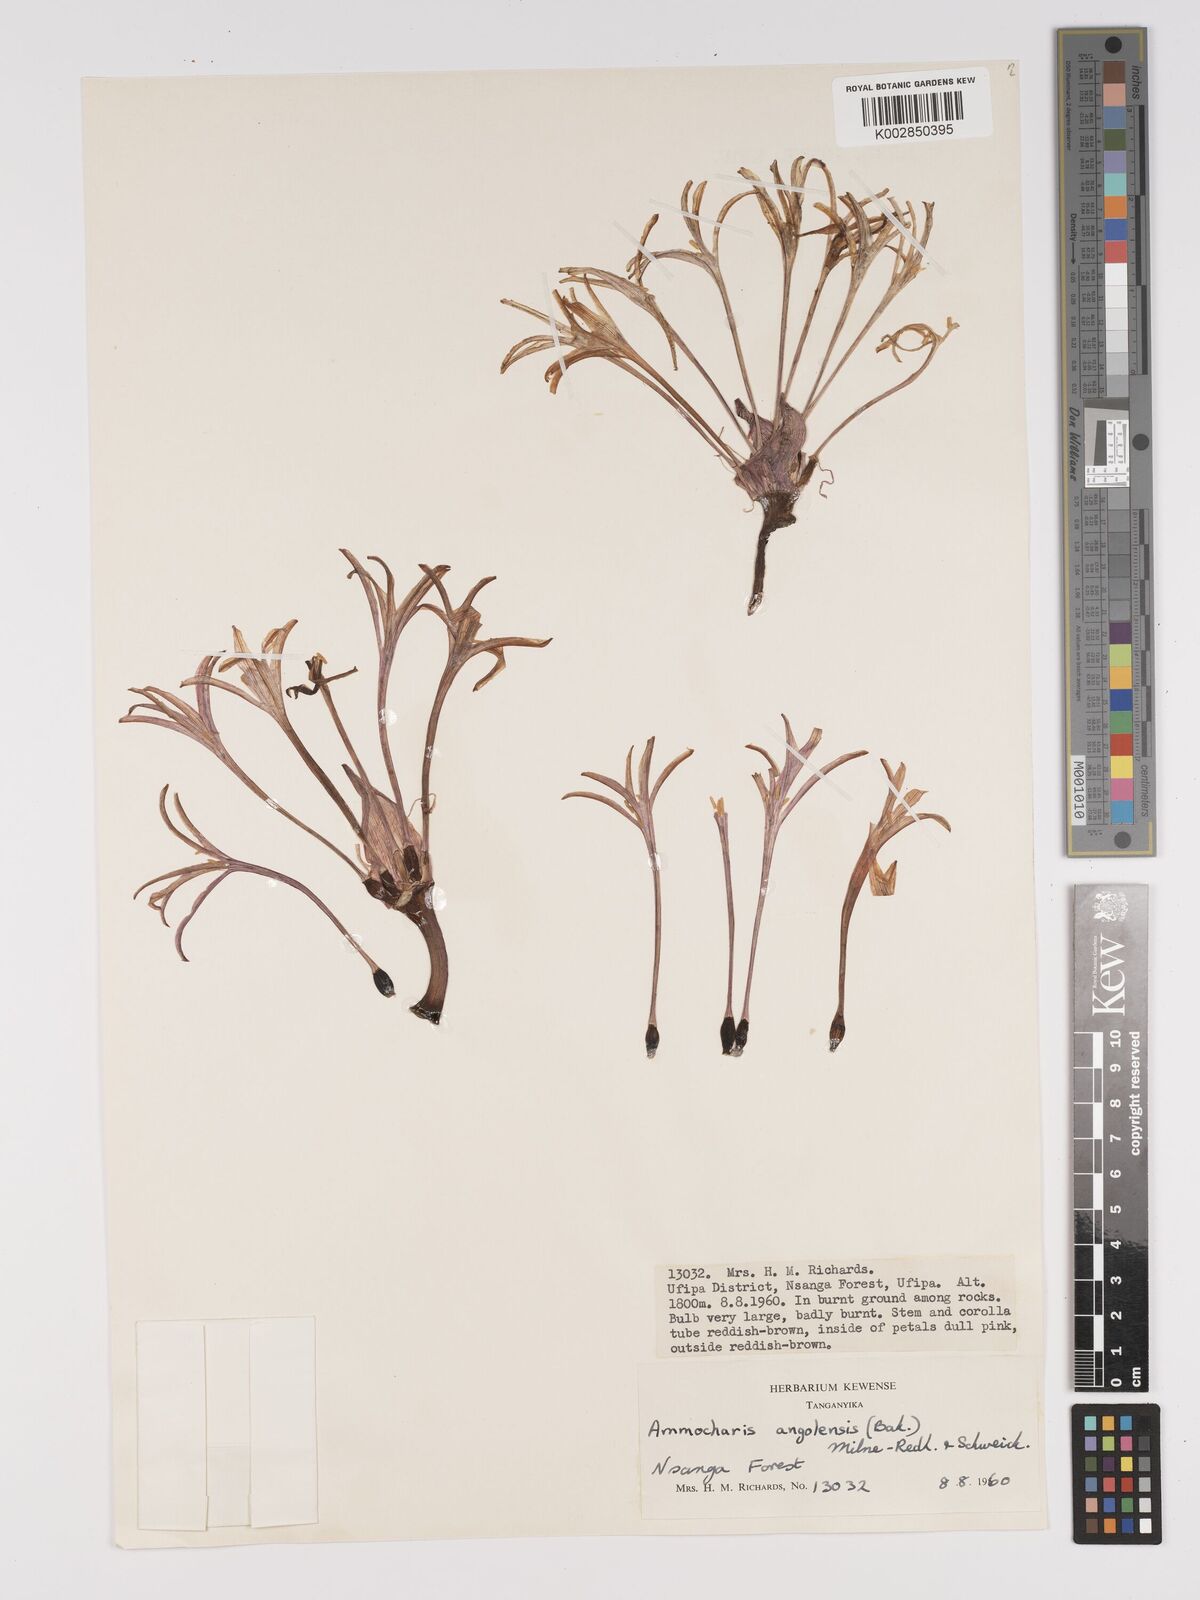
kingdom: Plantae
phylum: Tracheophyta
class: Liliopsida
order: Asparagales
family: Amaryllidaceae
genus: Ammocharis
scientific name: Ammocharis angolensis
